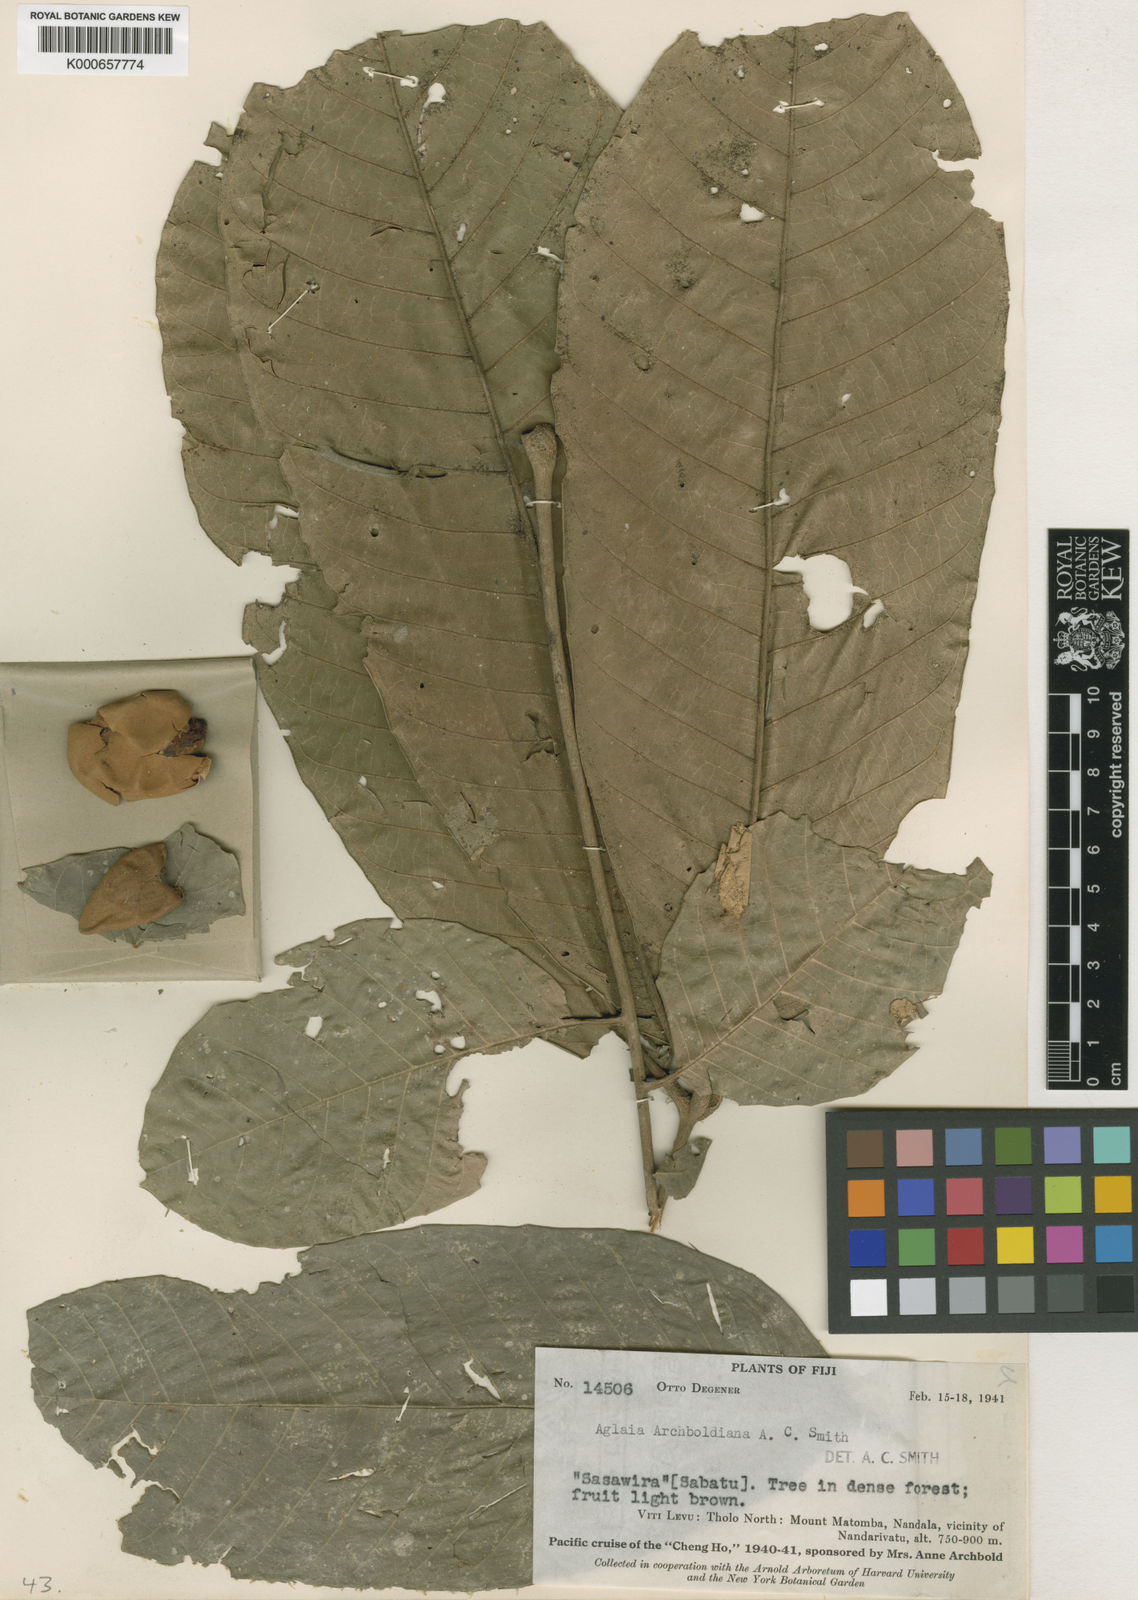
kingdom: Plantae
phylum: Tracheophyta
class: Magnoliopsida
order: Sapindales
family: Meliaceae
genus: Aglaia
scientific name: Aglaia archboldiana
